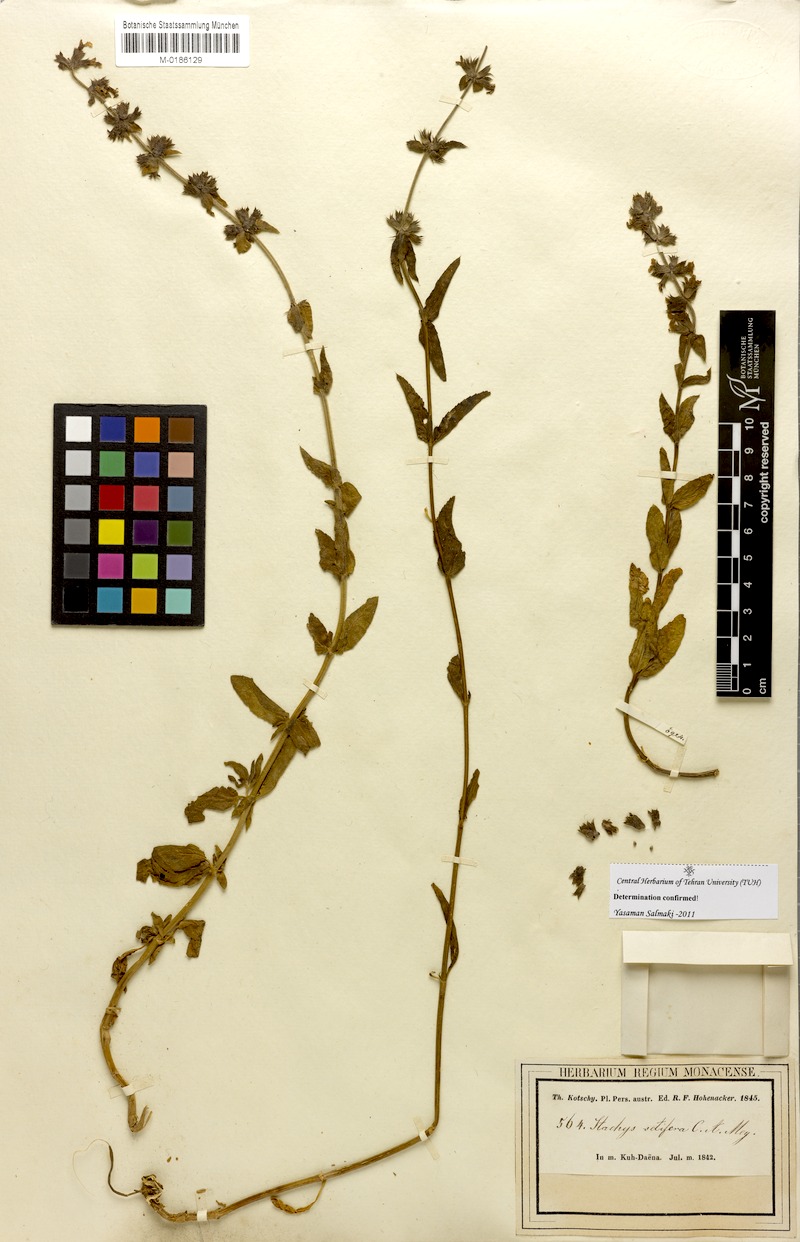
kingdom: Plantae
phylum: Tracheophyta
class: Magnoliopsida
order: Lamiales
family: Lamiaceae
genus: Stachys
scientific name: Stachys setifera
